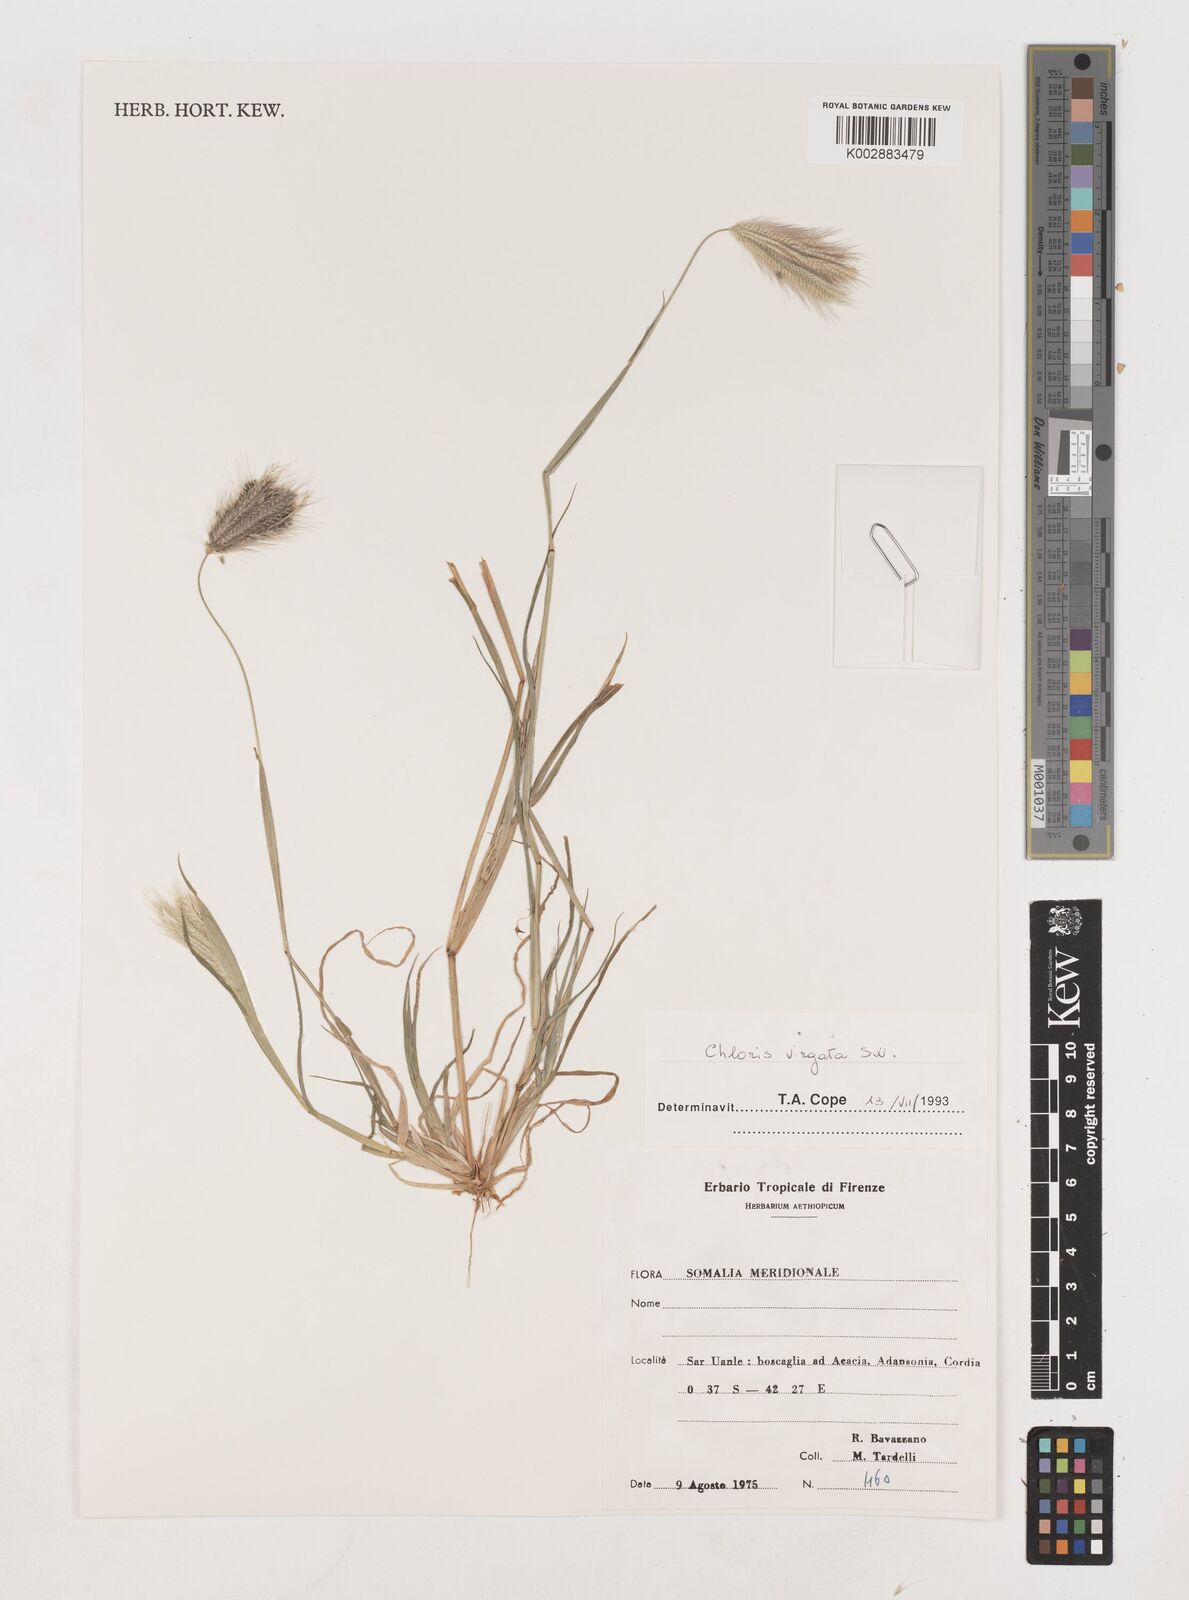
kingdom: Plantae
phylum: Tracheophyta
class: Liliopsida
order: Poales
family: Poaceae
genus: Chloris
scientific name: Chloris virgata
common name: Feathery rhodes-grass
